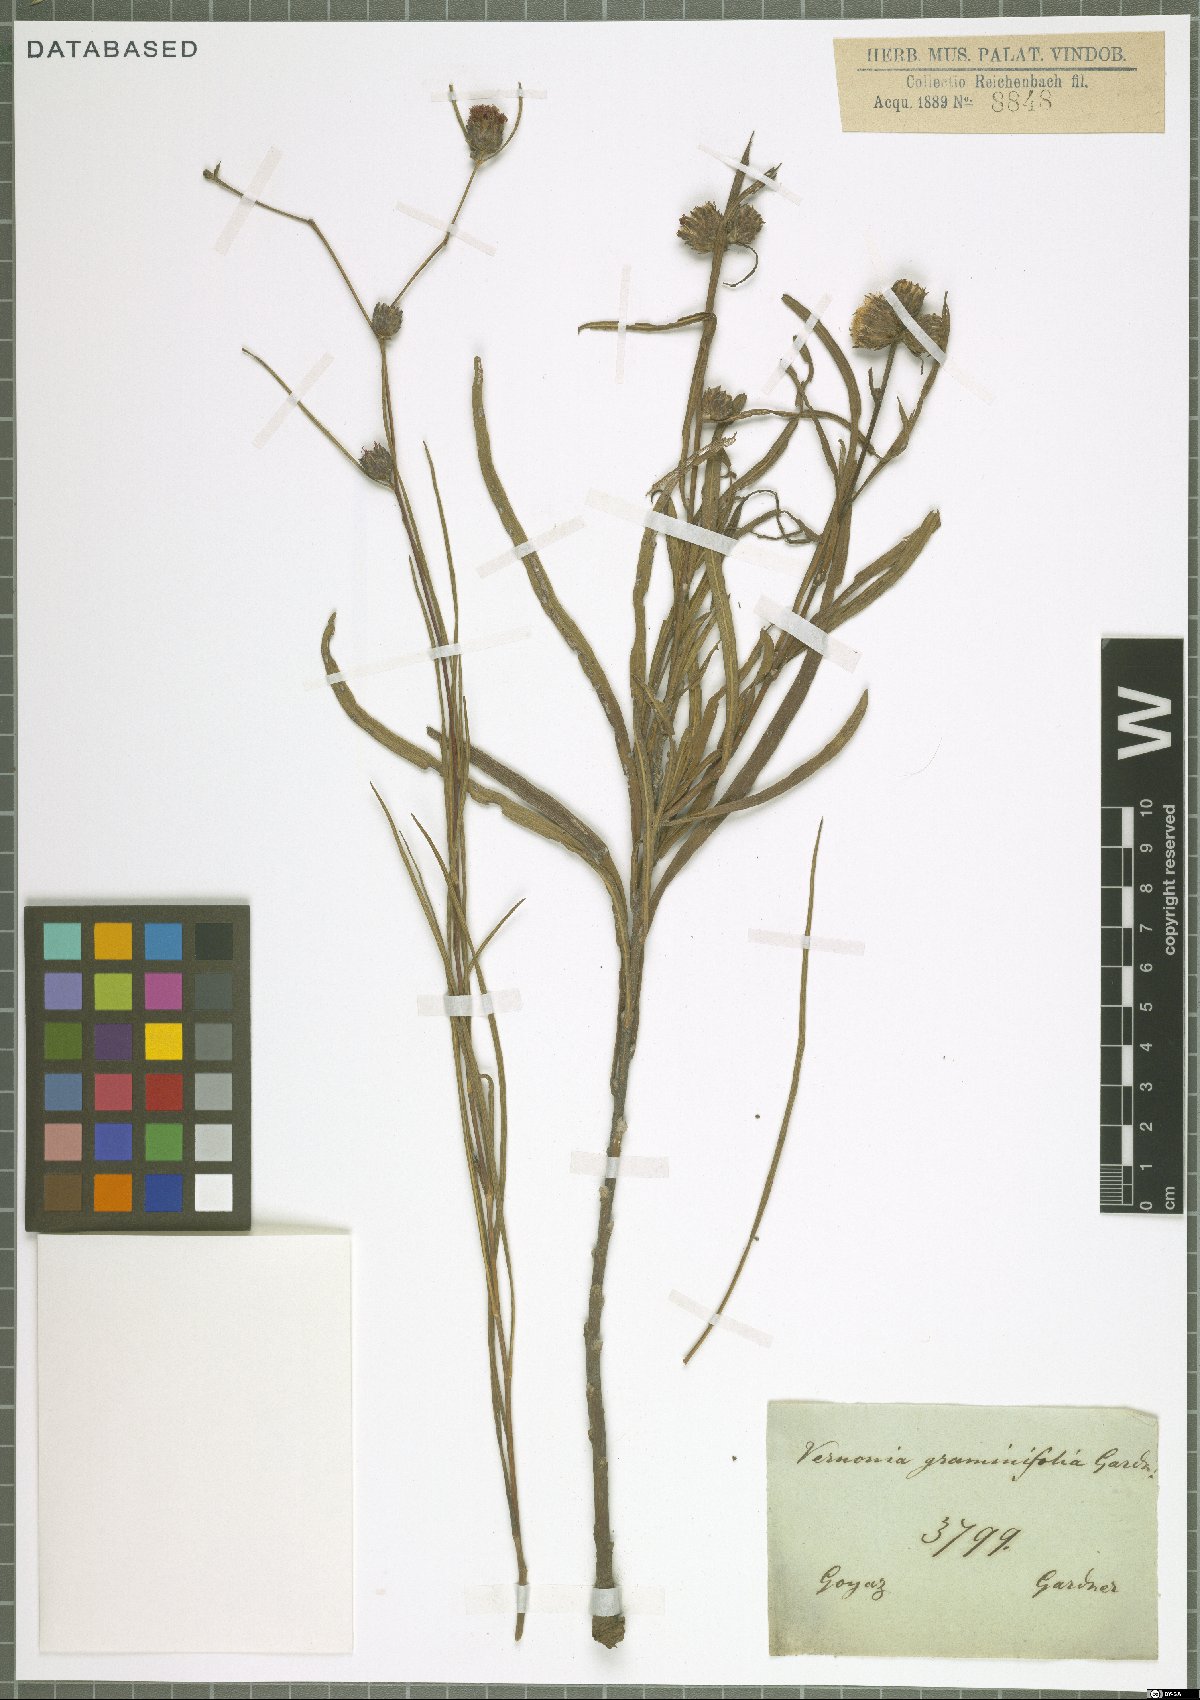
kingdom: Plantae
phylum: Tracheophyta
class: Magnoliopsida
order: Asterales
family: Asteraceae
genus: Lessingianthus
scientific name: Lessingianthus graminifolius
